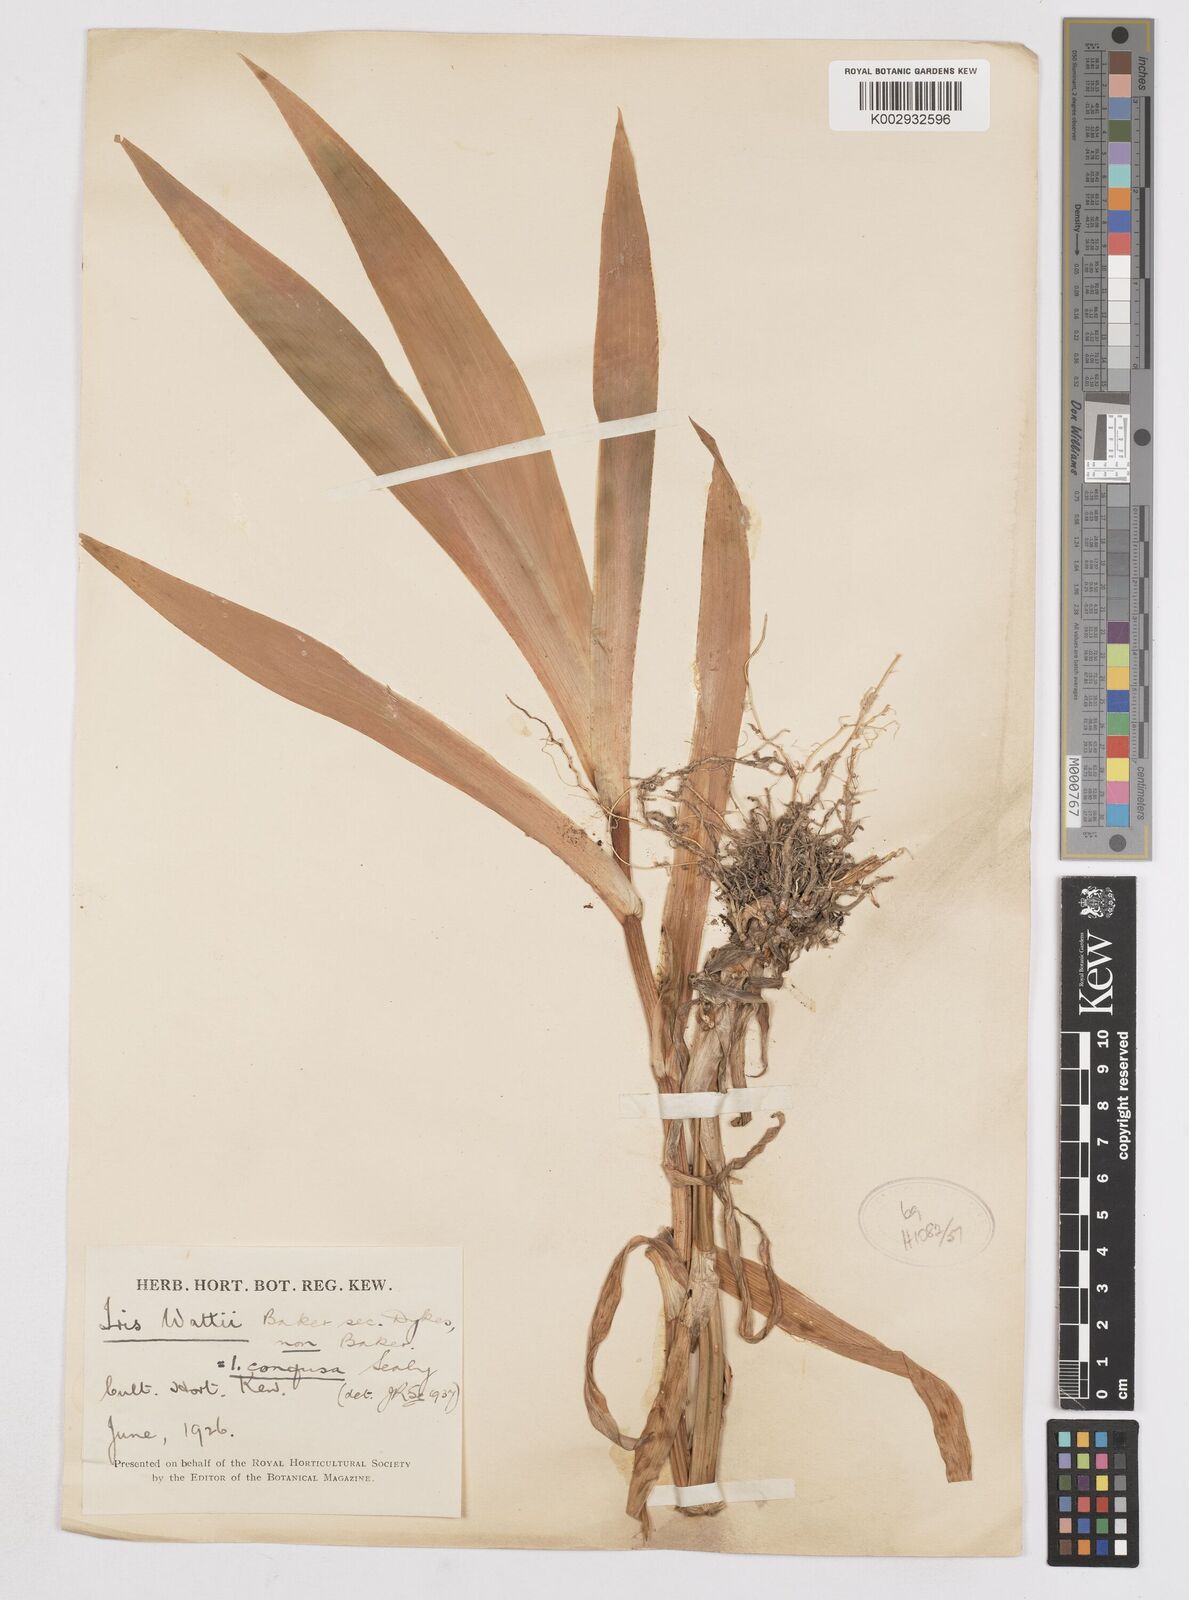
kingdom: Plantae
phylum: Tracheophyta
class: Liliopsida
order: Asparagales
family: Iridaceae
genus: Iris
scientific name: Iris wattii
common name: Fan-shape iris
